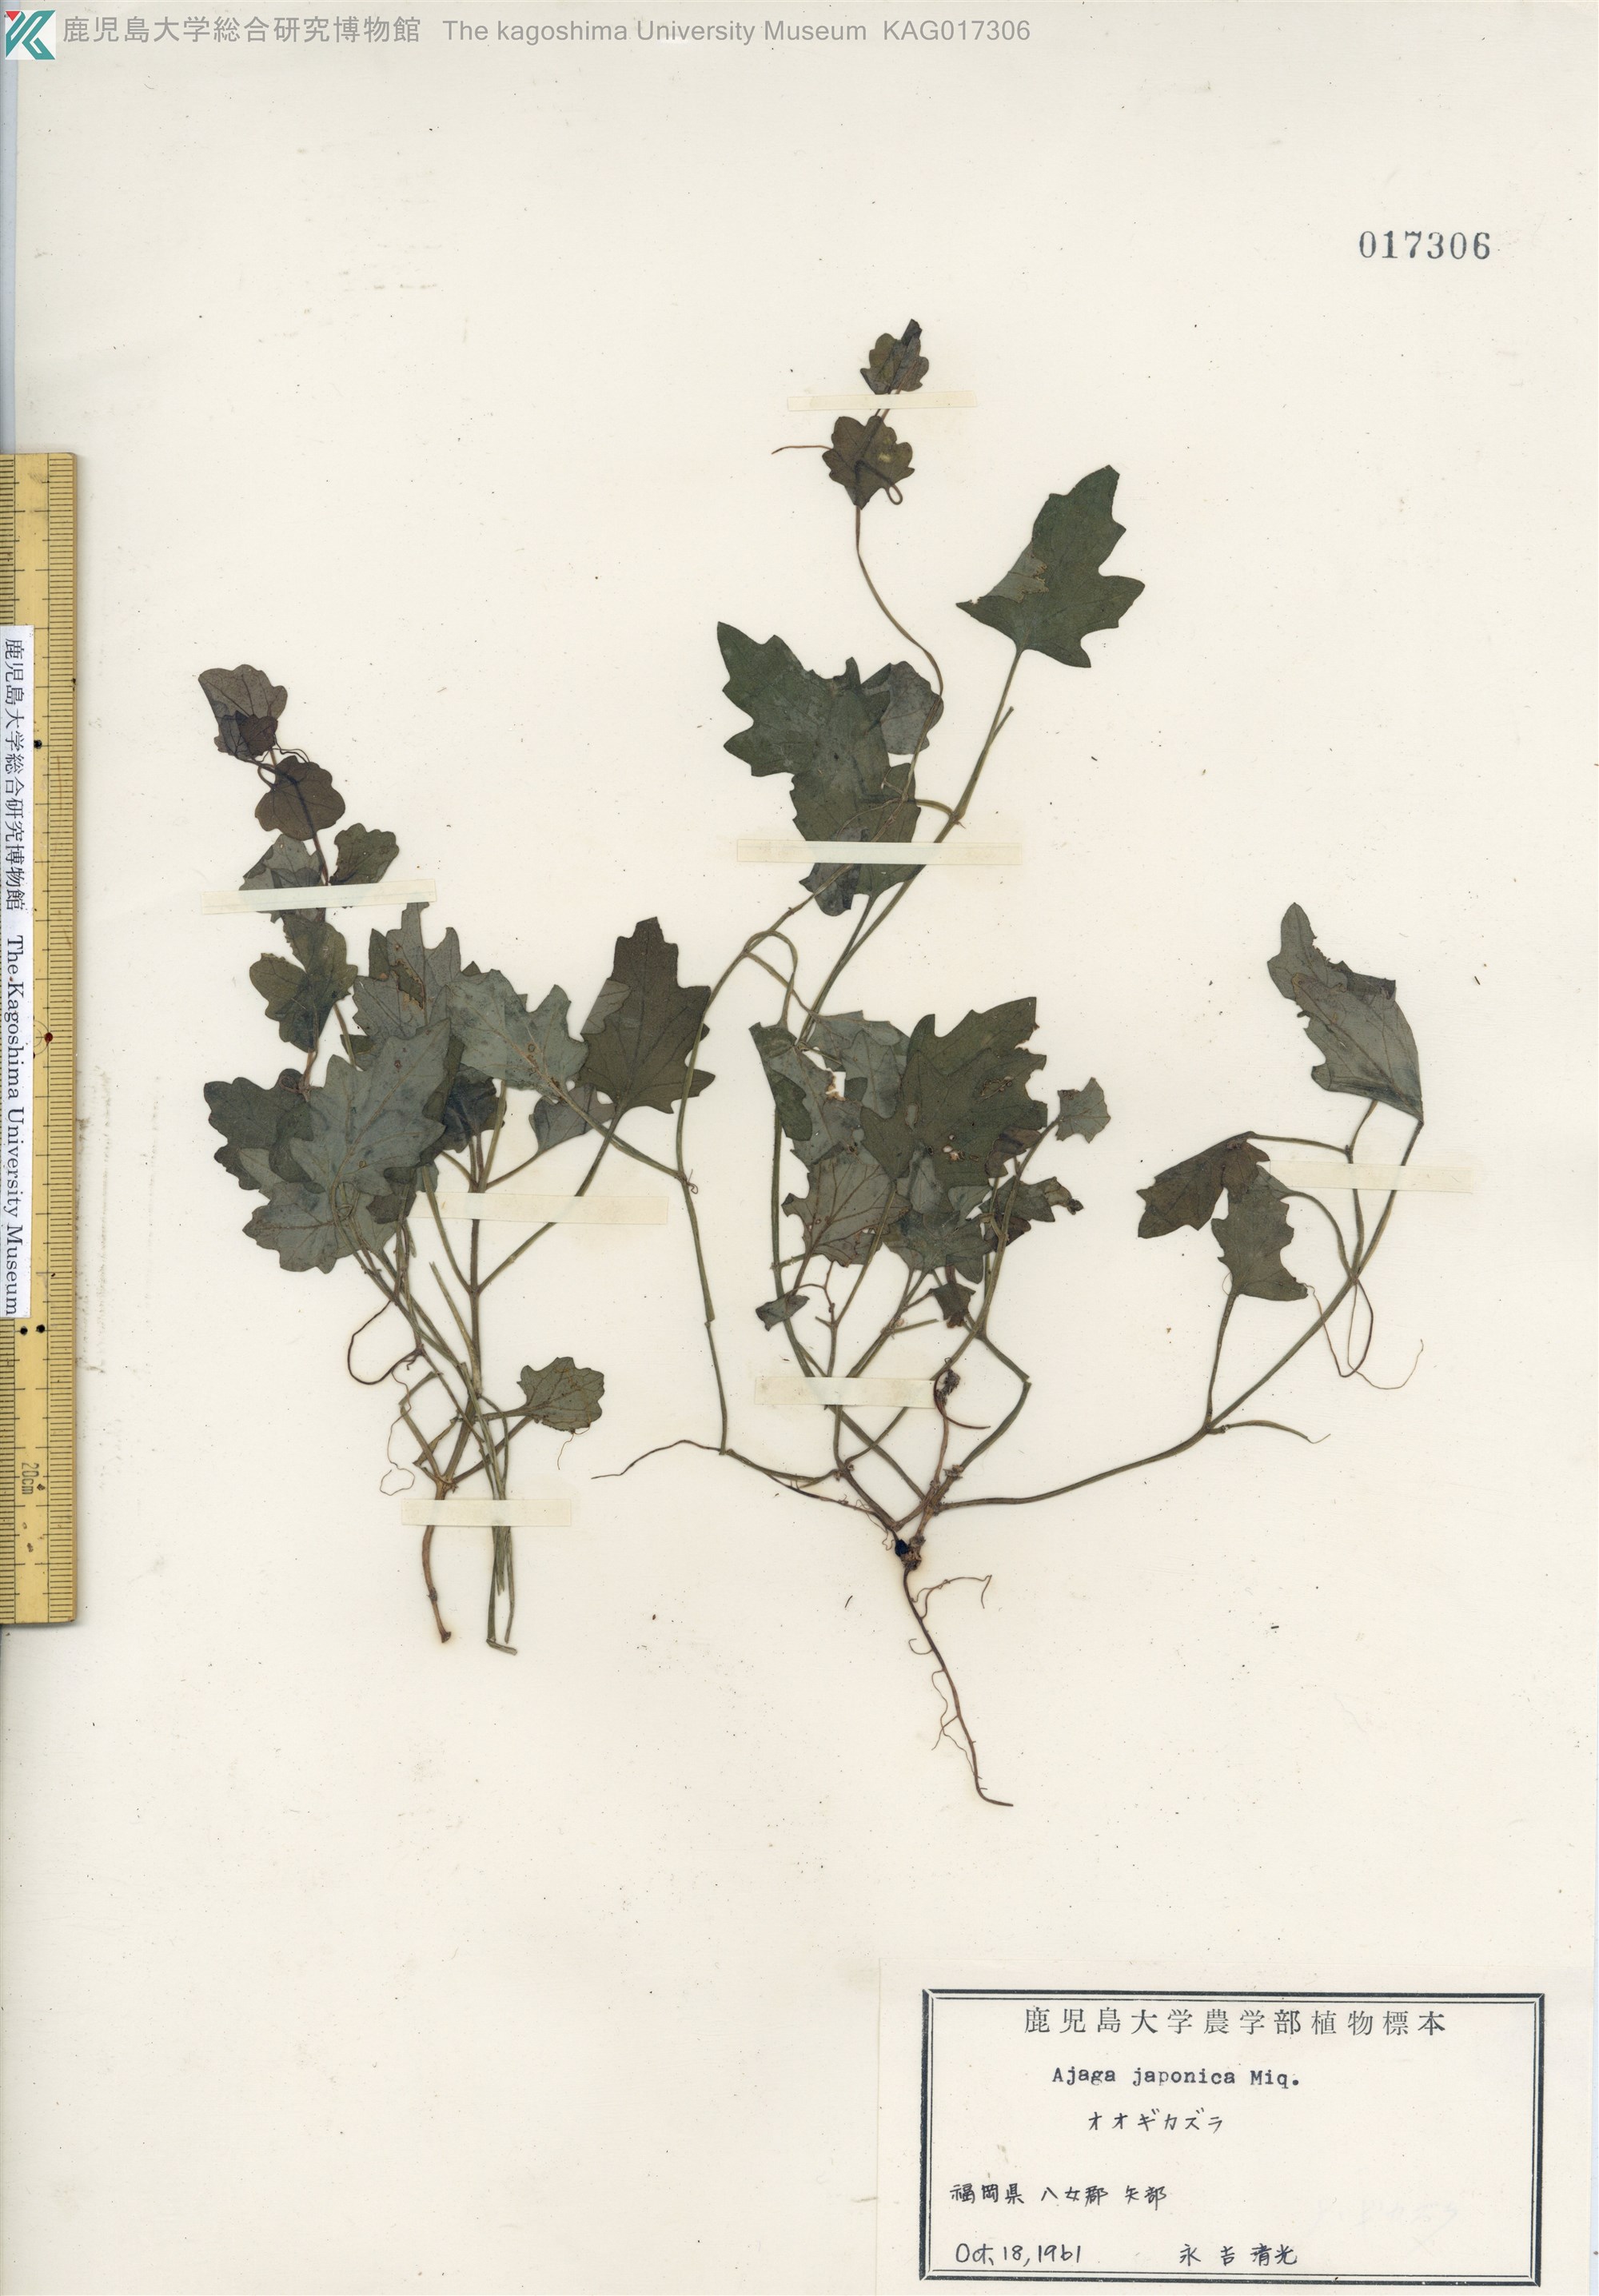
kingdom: Plantae
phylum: Tracheophyta
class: Magnoliopsida
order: Lamiales
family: Lamiaceae
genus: Ajuga
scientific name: Ajuga japonica
